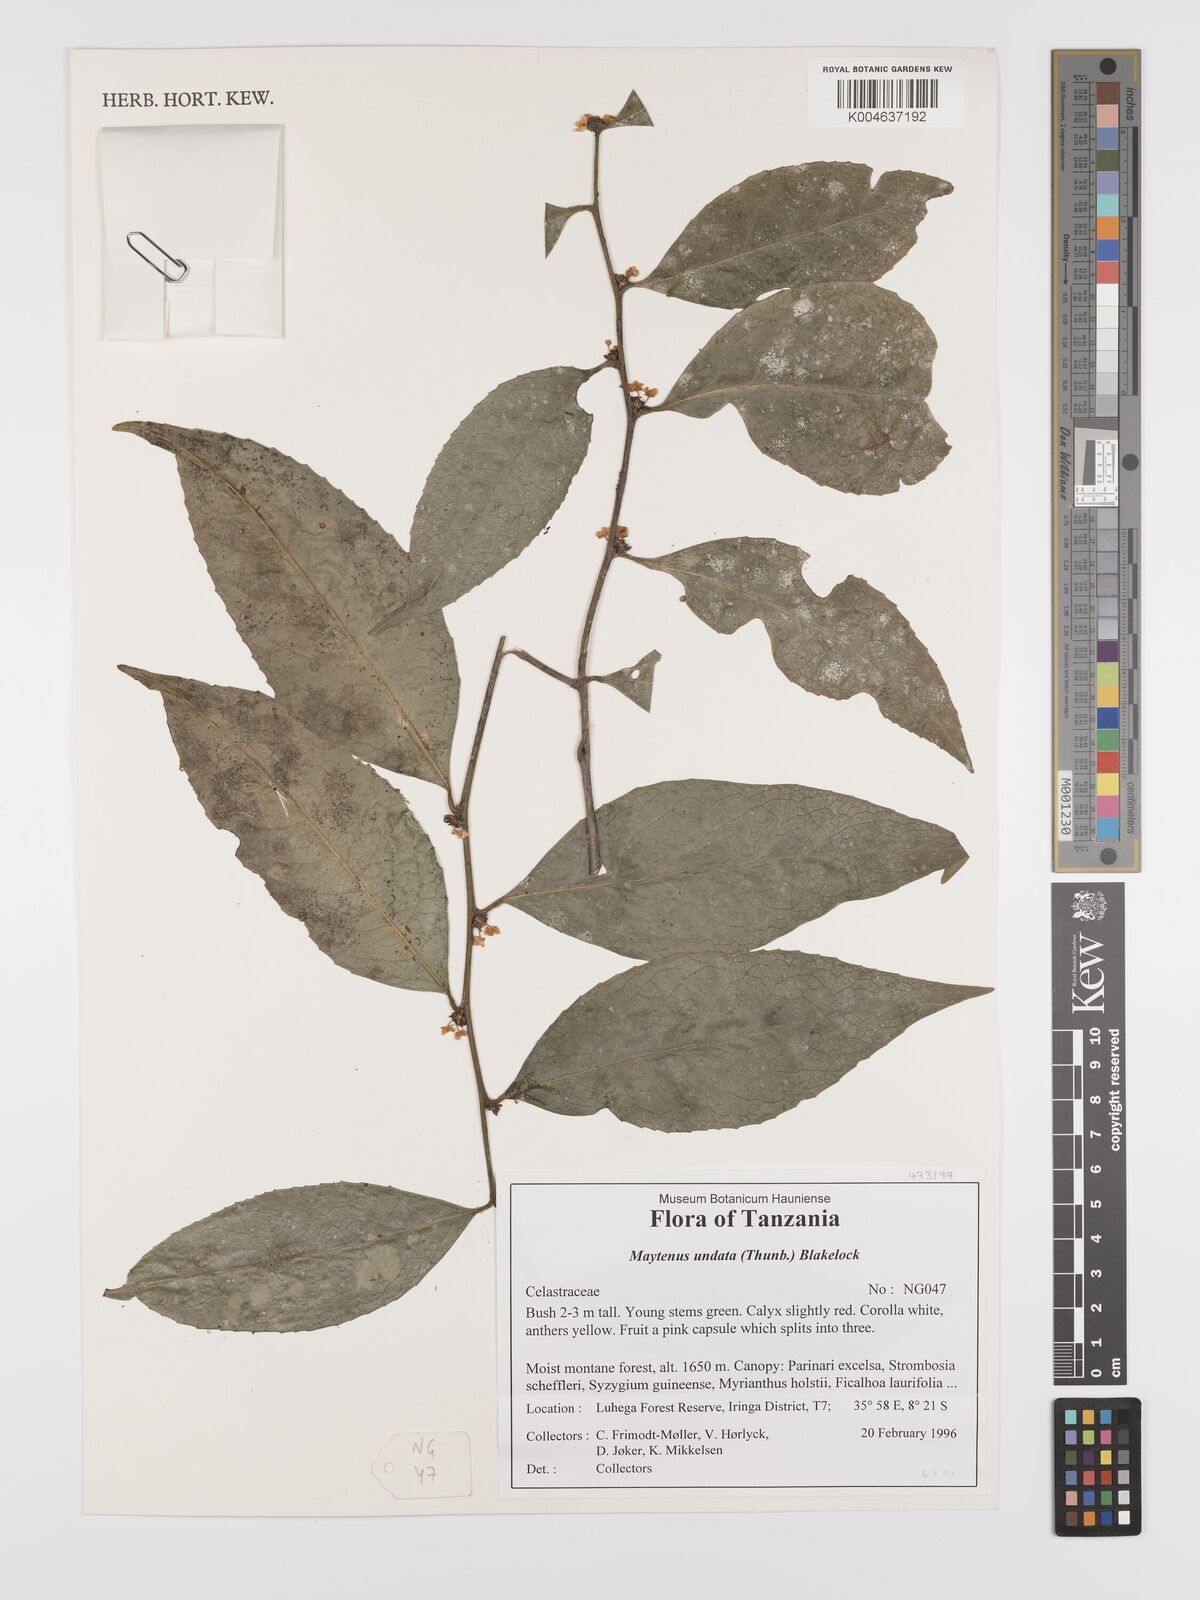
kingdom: Plantae
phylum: Tracheophyta
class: Magnoliopsida
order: Celastrales
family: Celastraceae
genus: Gymnosporia
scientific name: Gymnosporia undata
